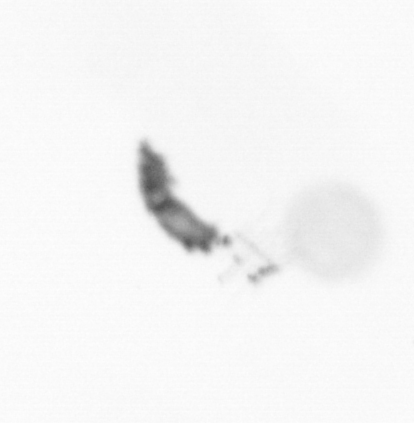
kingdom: Chromista
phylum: Ochrophyta
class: Bacillariophyceae
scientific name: Bacillariophyceae
